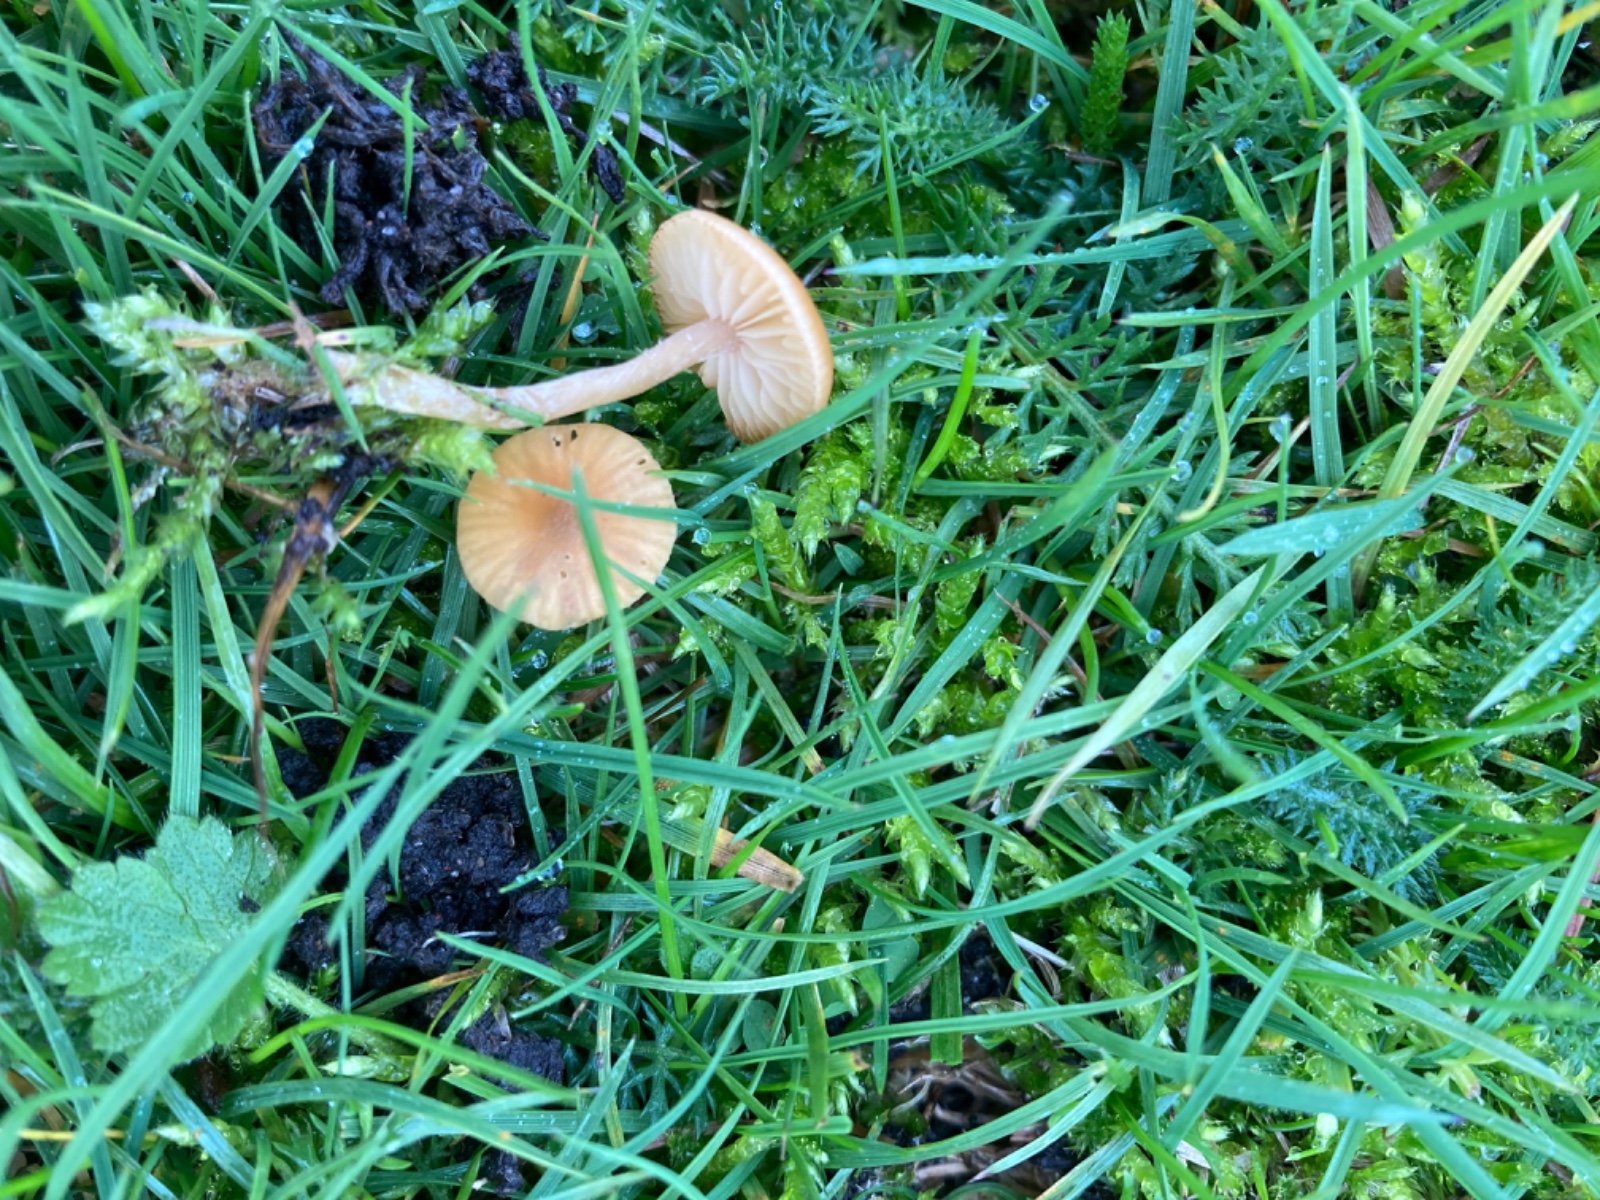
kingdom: Fungi
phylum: Basidiomycota
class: Agaricomycetes
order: Agaricales
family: Hymenogastraceae
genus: Galerina
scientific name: Galerina graminea
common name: plæne-hjelmhat
